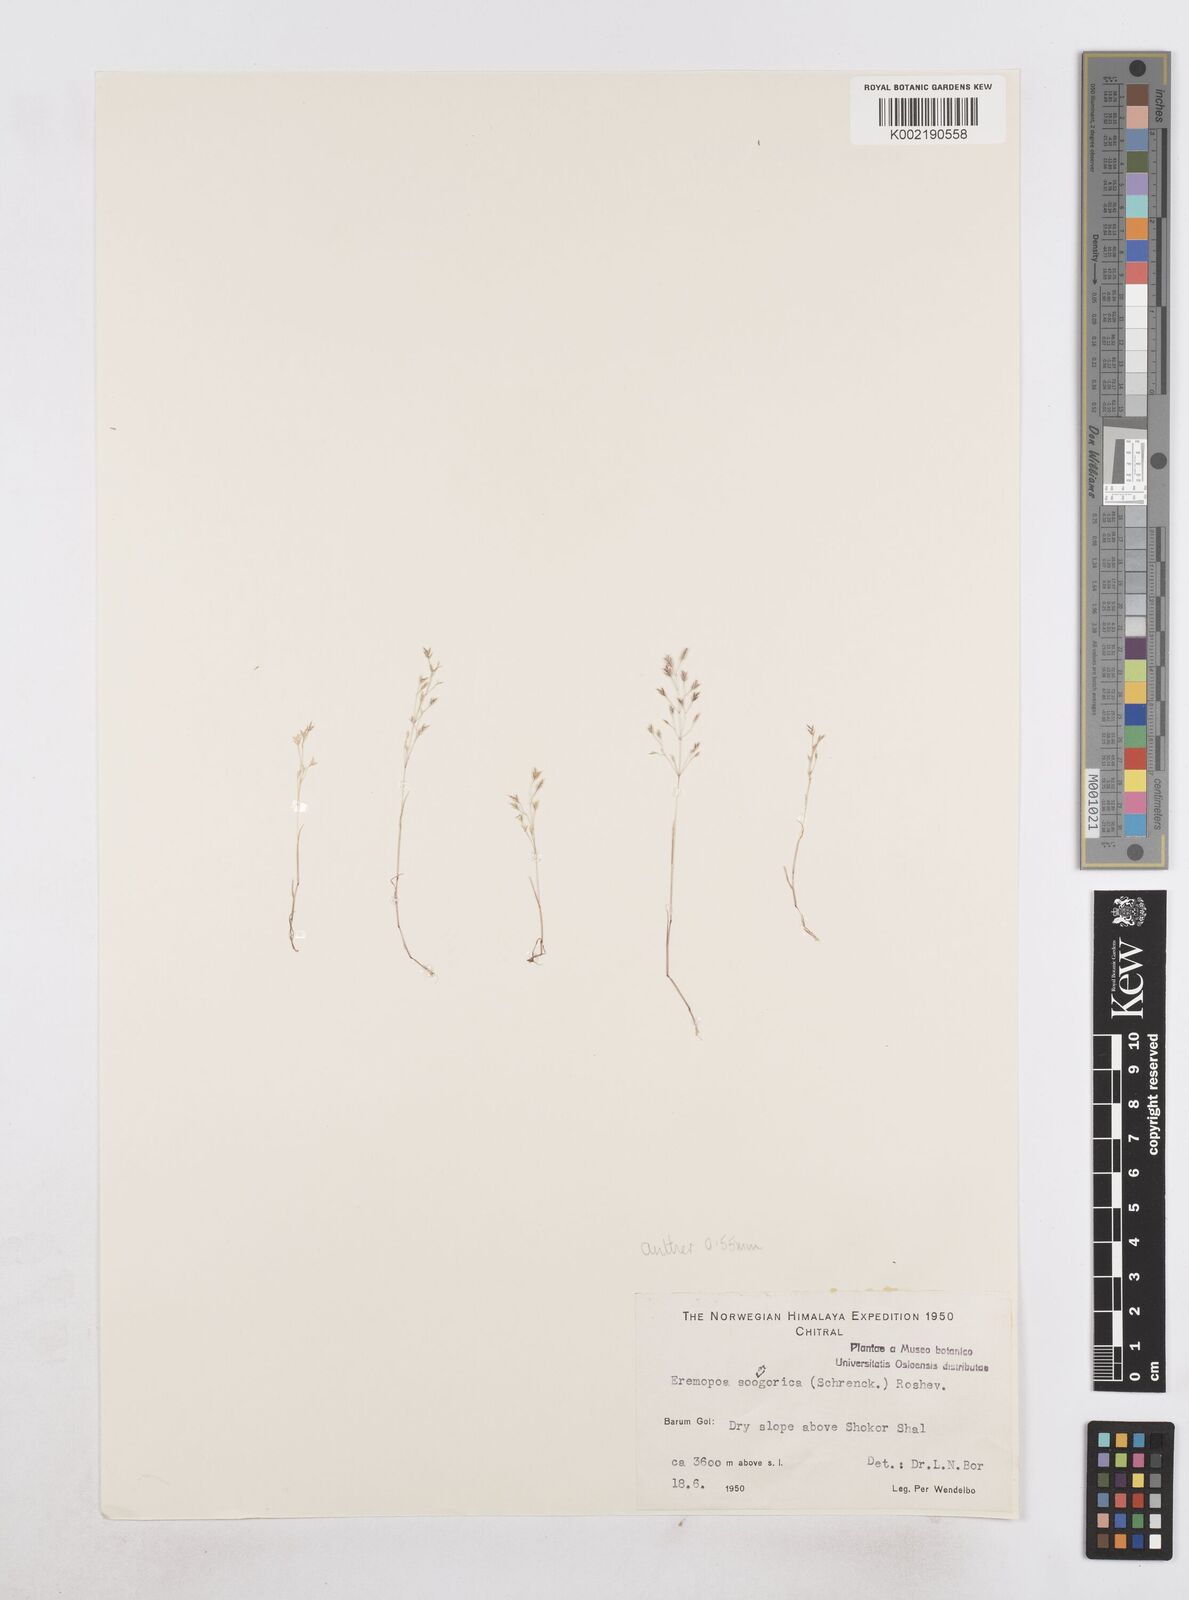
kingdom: Plantae
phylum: Tracheophyta
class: Liliopsida
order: Poales
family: Poaceae
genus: Poa
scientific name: Poa diaphora
